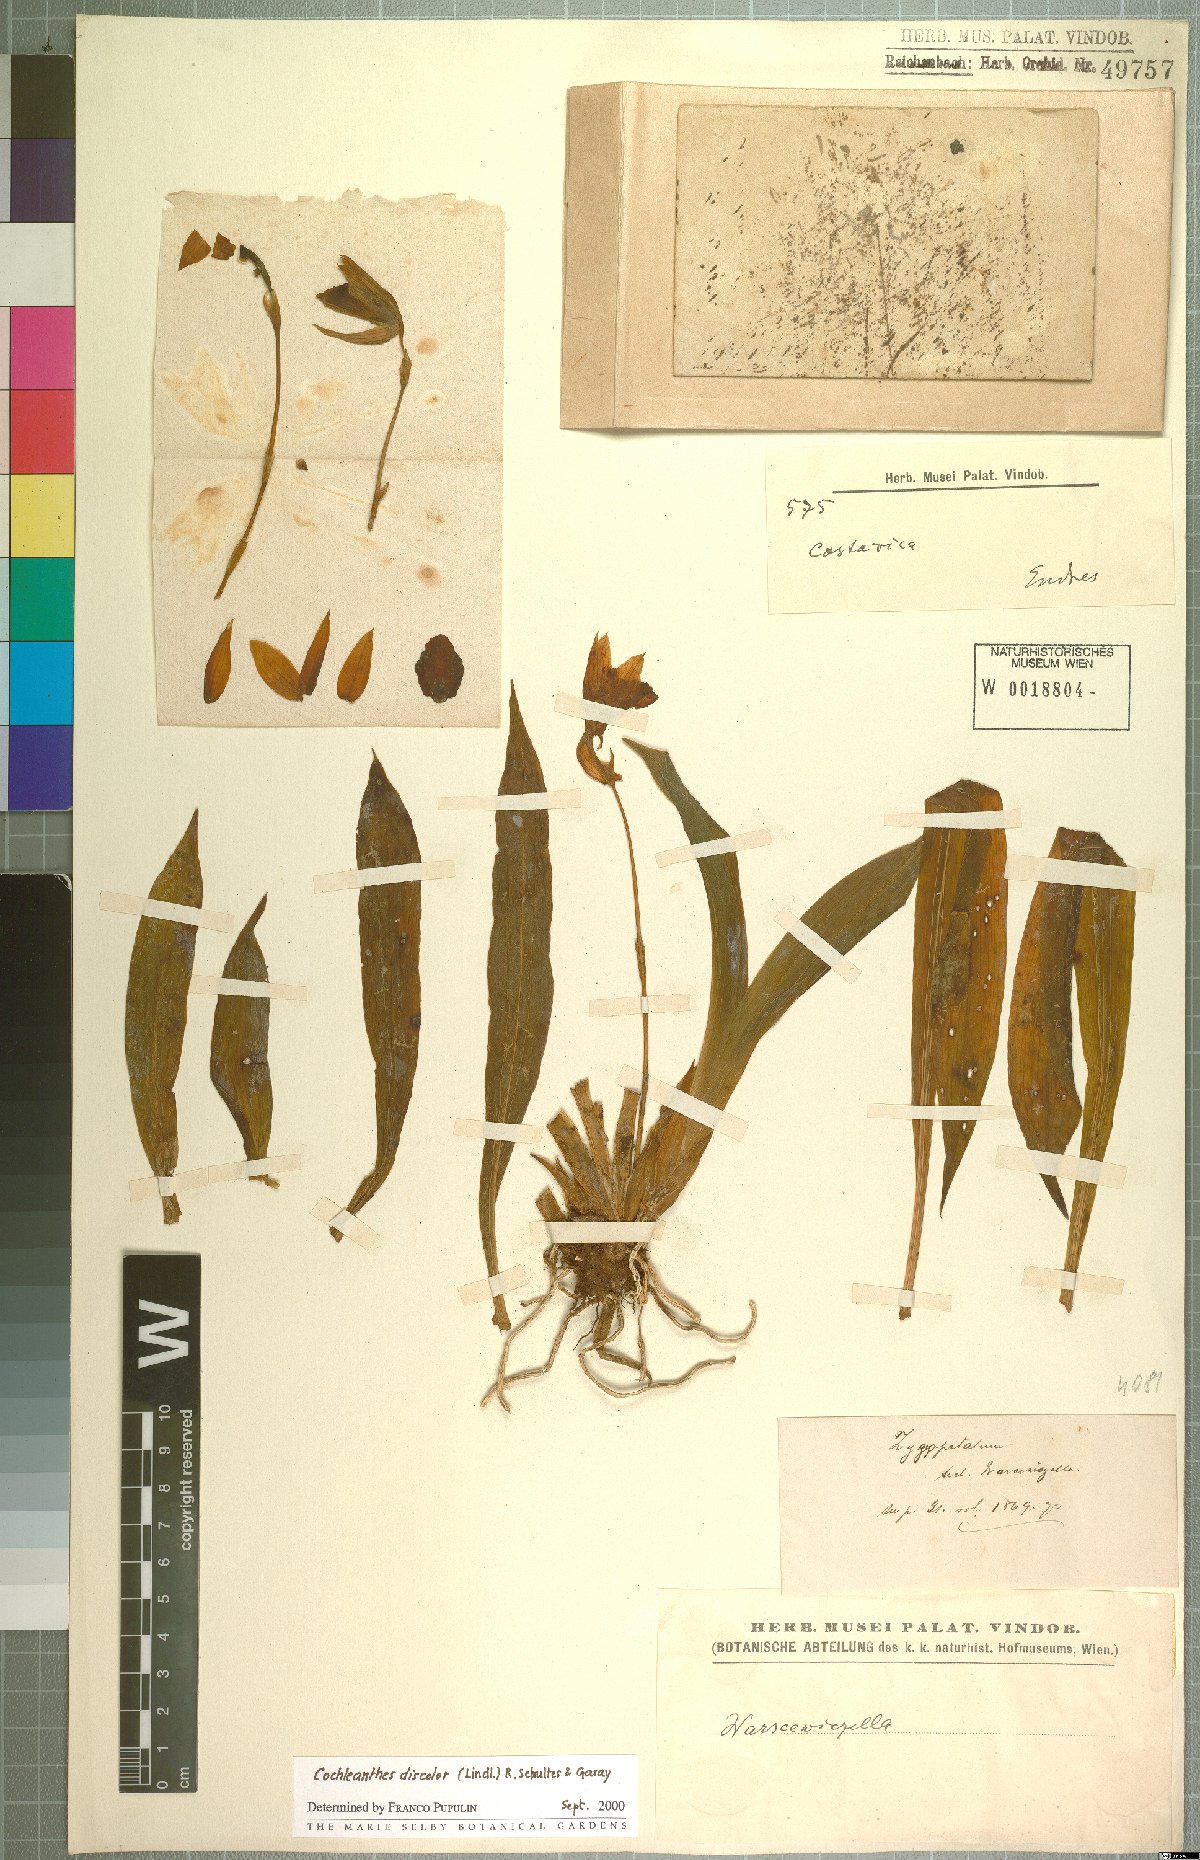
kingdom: Plantae
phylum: Tracheophyta
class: Liliopsida
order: Asparagales
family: Orchidaceae
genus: Warczewiczella
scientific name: Warczewiczella discolor
